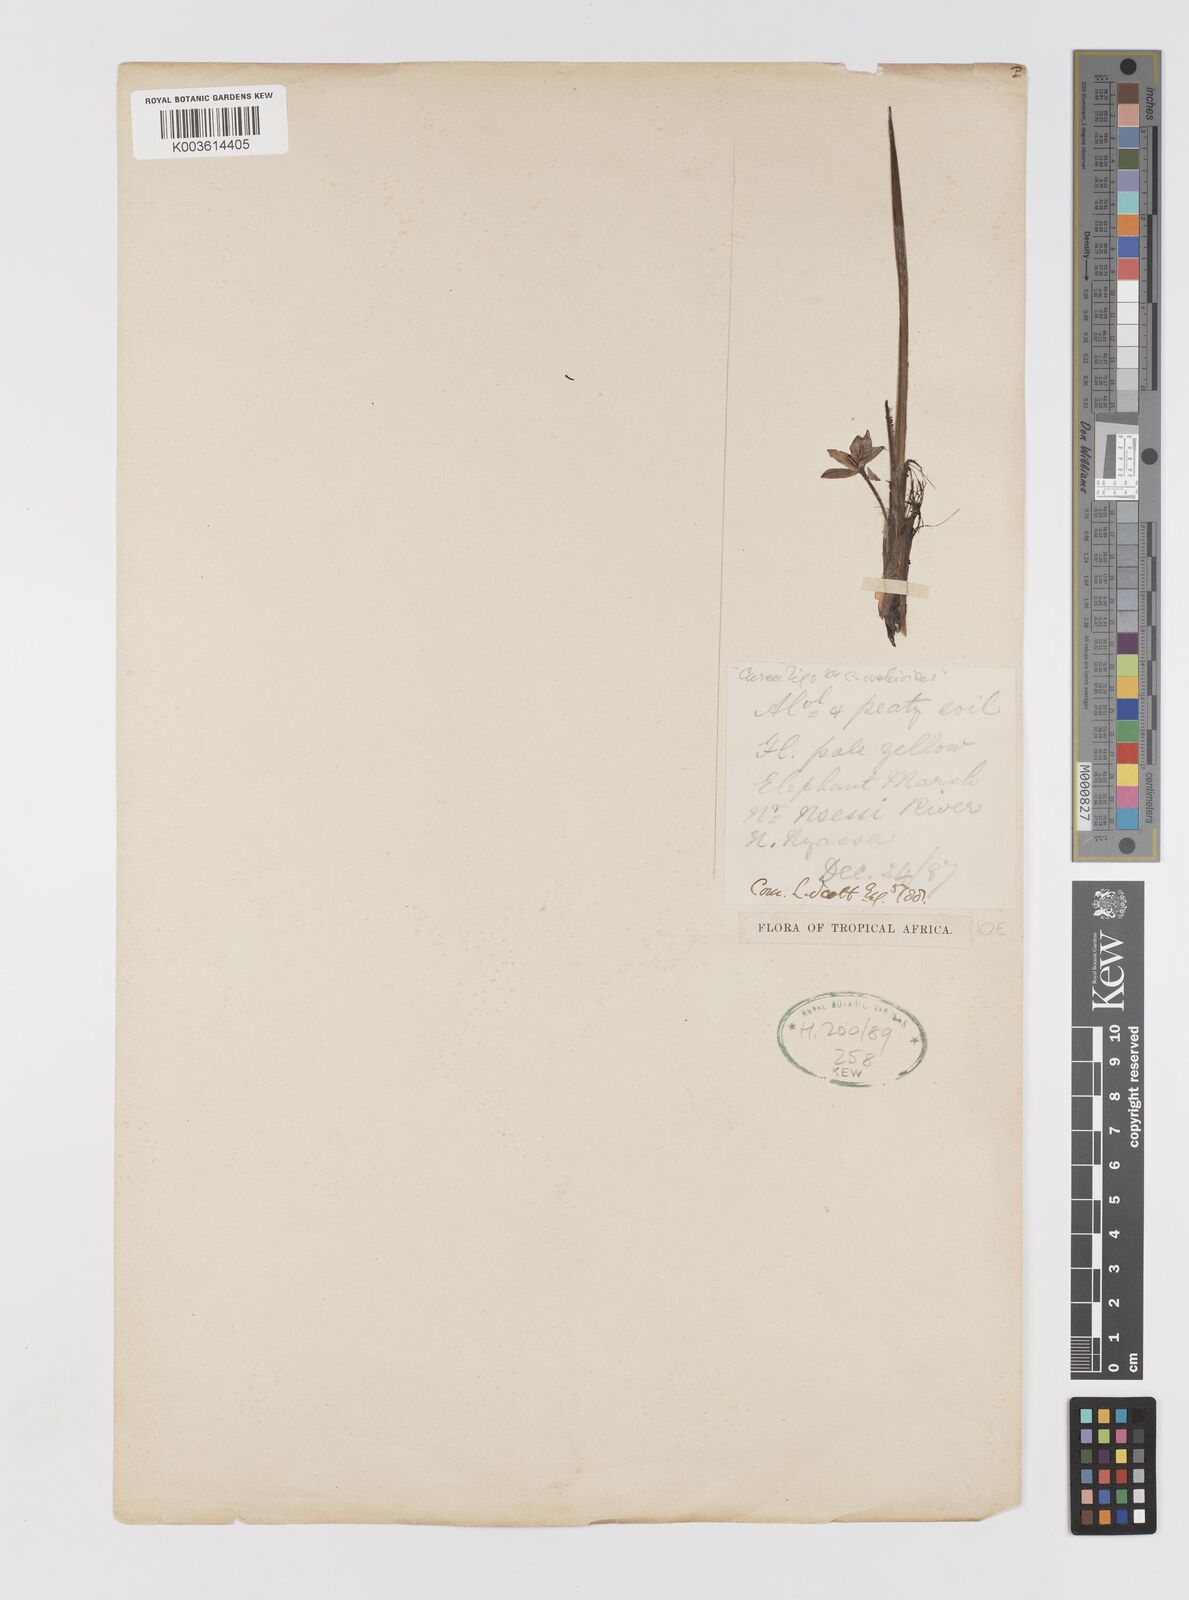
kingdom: Plantae
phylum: Tracheophyta
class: Liliopsida
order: Asparagales
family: Hypoxidaceae
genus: Curculigo
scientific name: Curculigo pilosa
